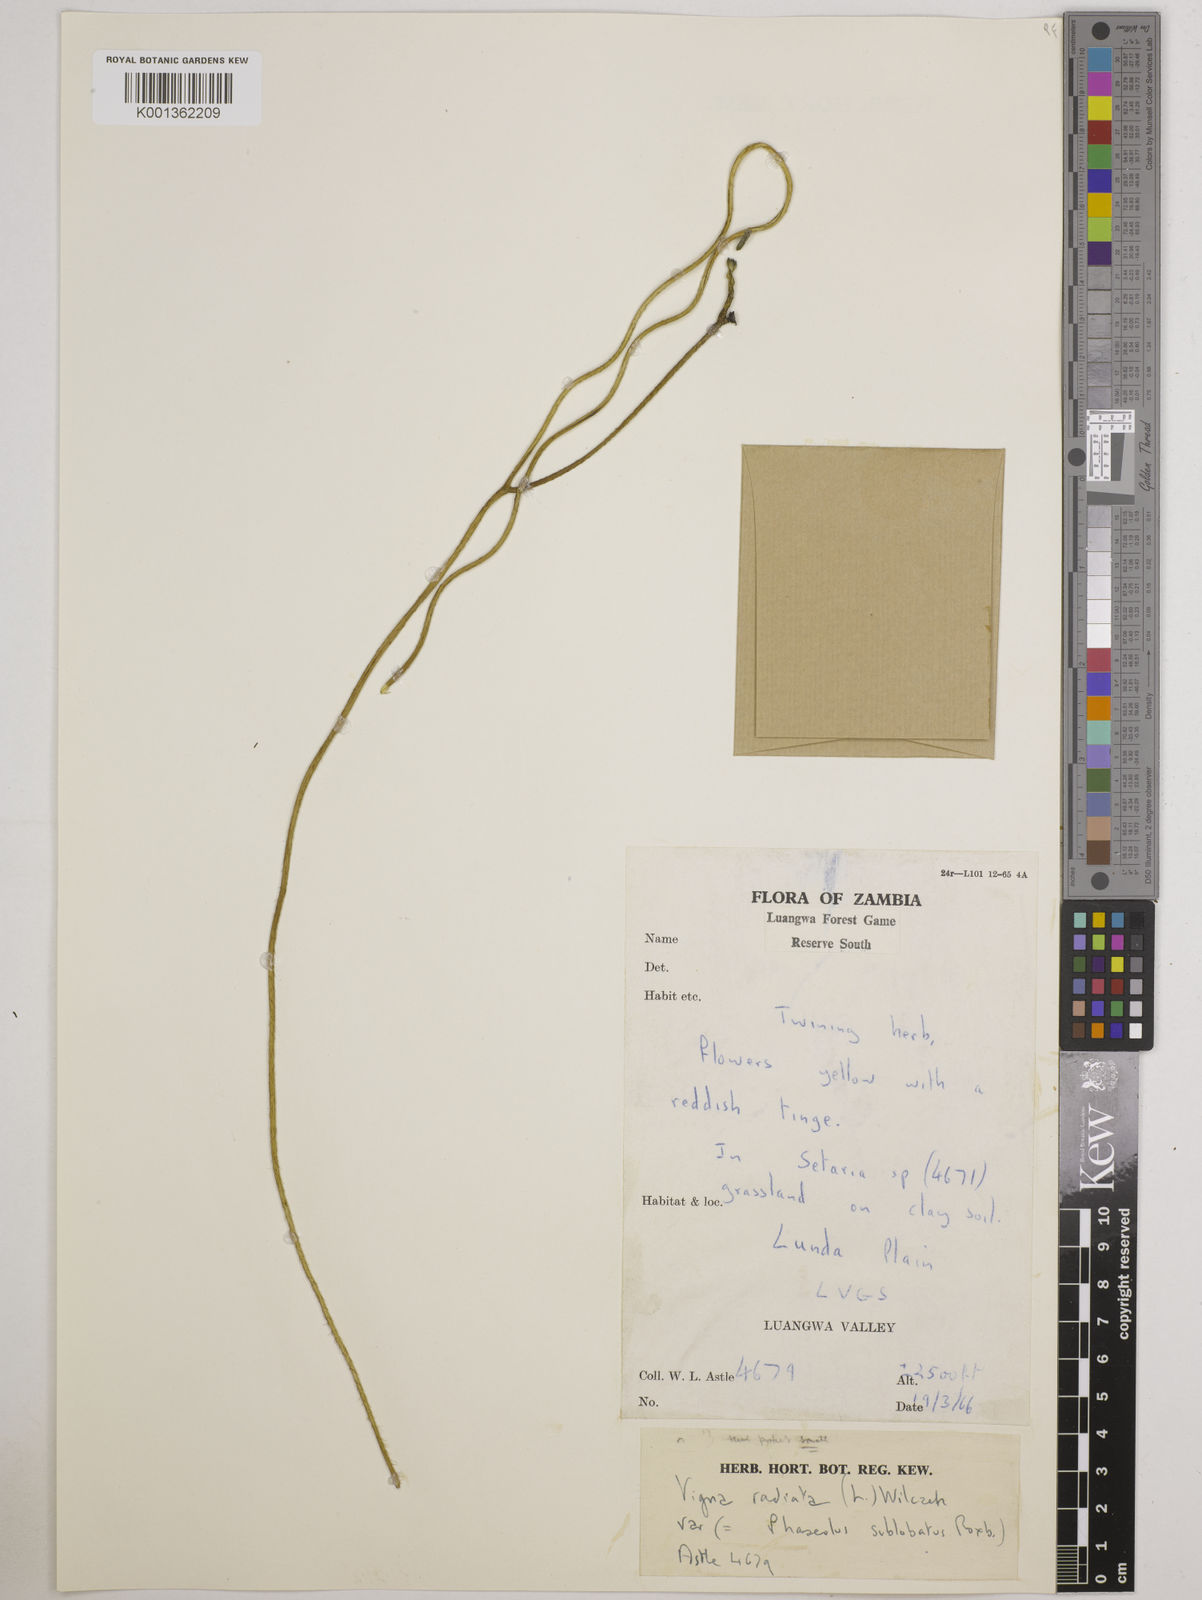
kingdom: Plantae
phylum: Tracheophyta
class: Magnoliopsida
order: Fabales
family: Fabaceae
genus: Vigna
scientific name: Vigna radiata
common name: Mung-bean
